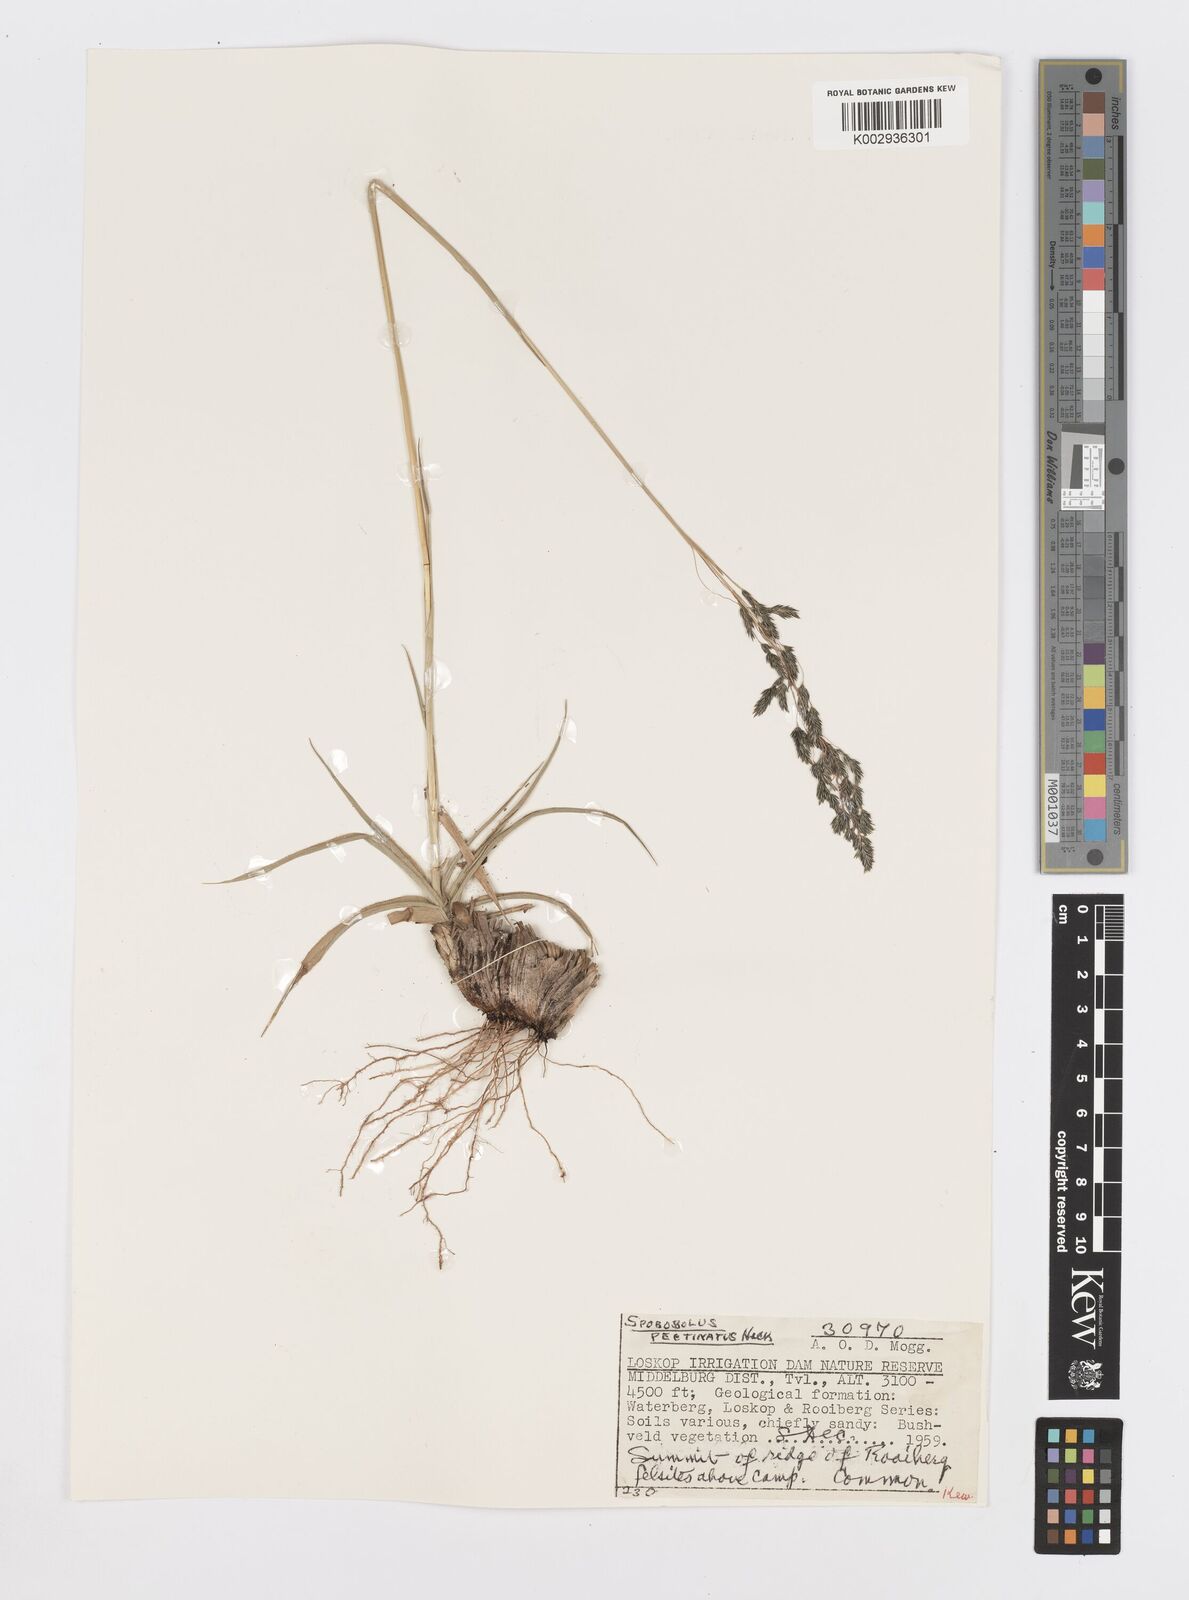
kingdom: Plantae
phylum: Tracheophyta
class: Liliopsida
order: Poales
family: Poaceae
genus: Sporobolus
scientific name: Sporobolus pectinatus
